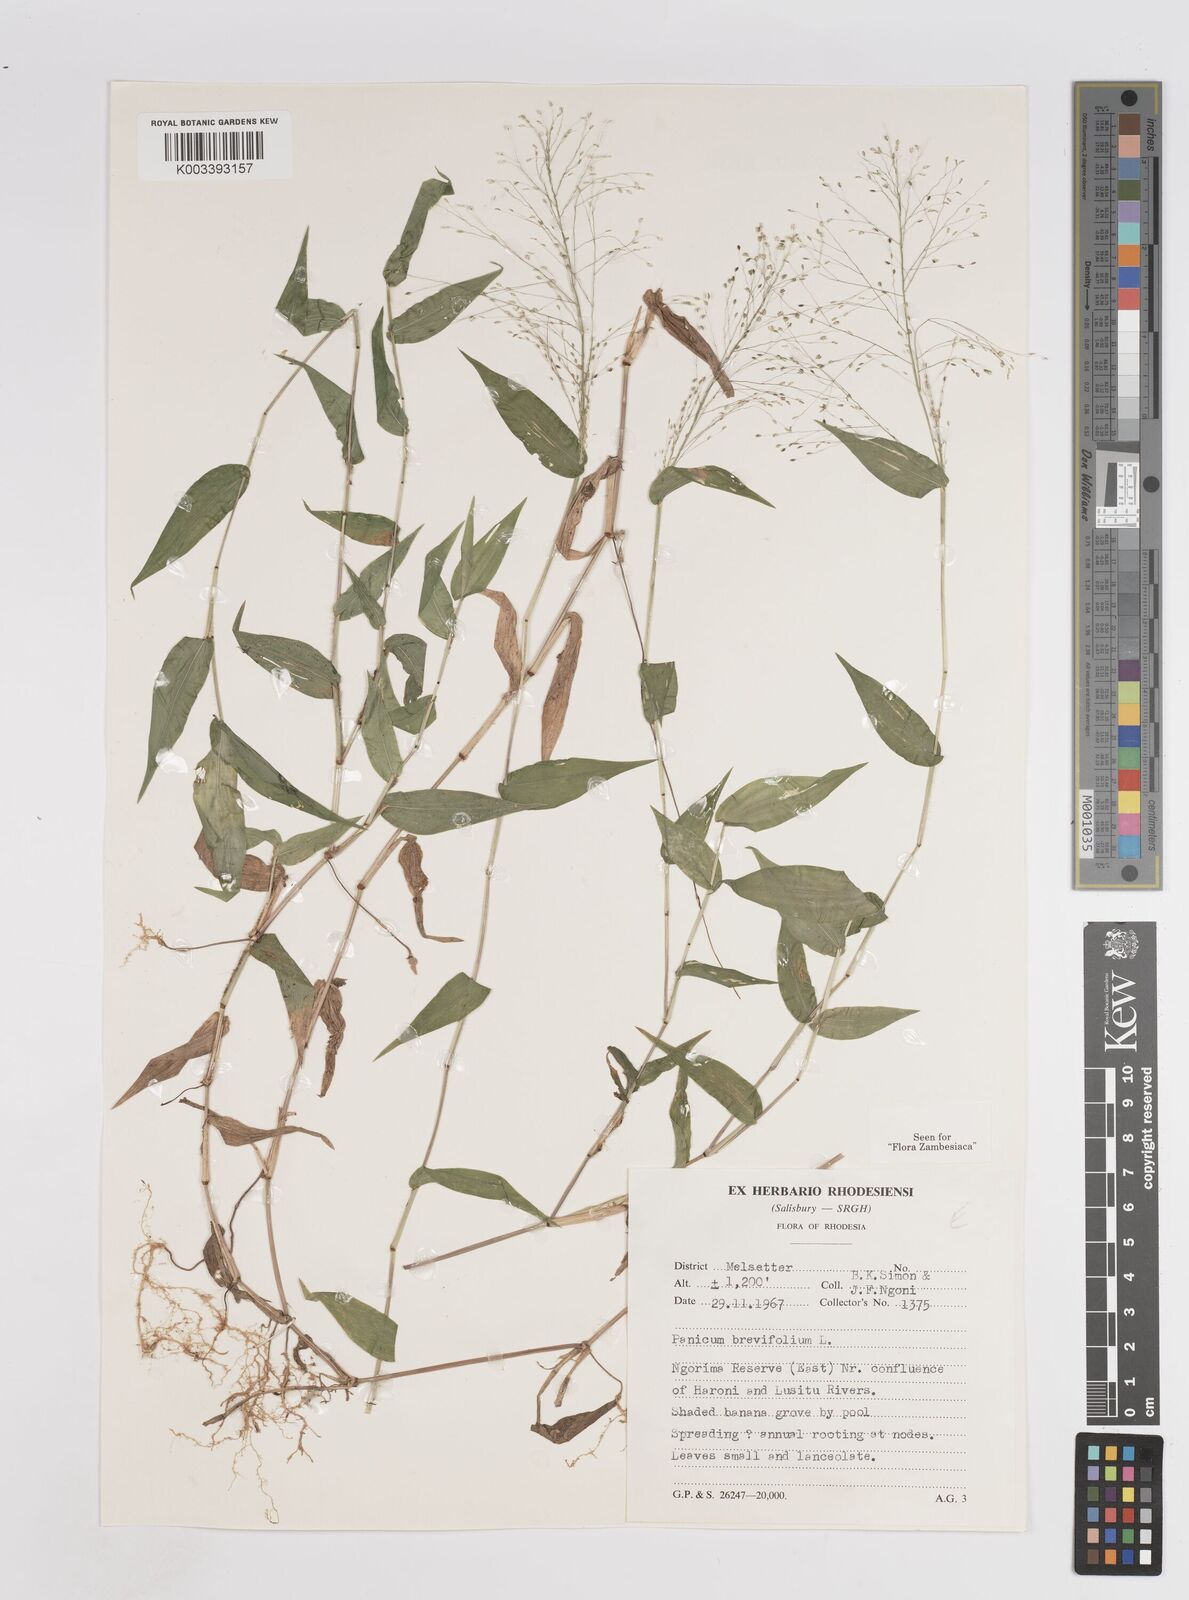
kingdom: Plantae
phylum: Tracheophyta
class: Liliopsida
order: Poales
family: Poaceae
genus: Panicum
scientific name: Panicum brevifolium
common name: Shortleaf panic grass
